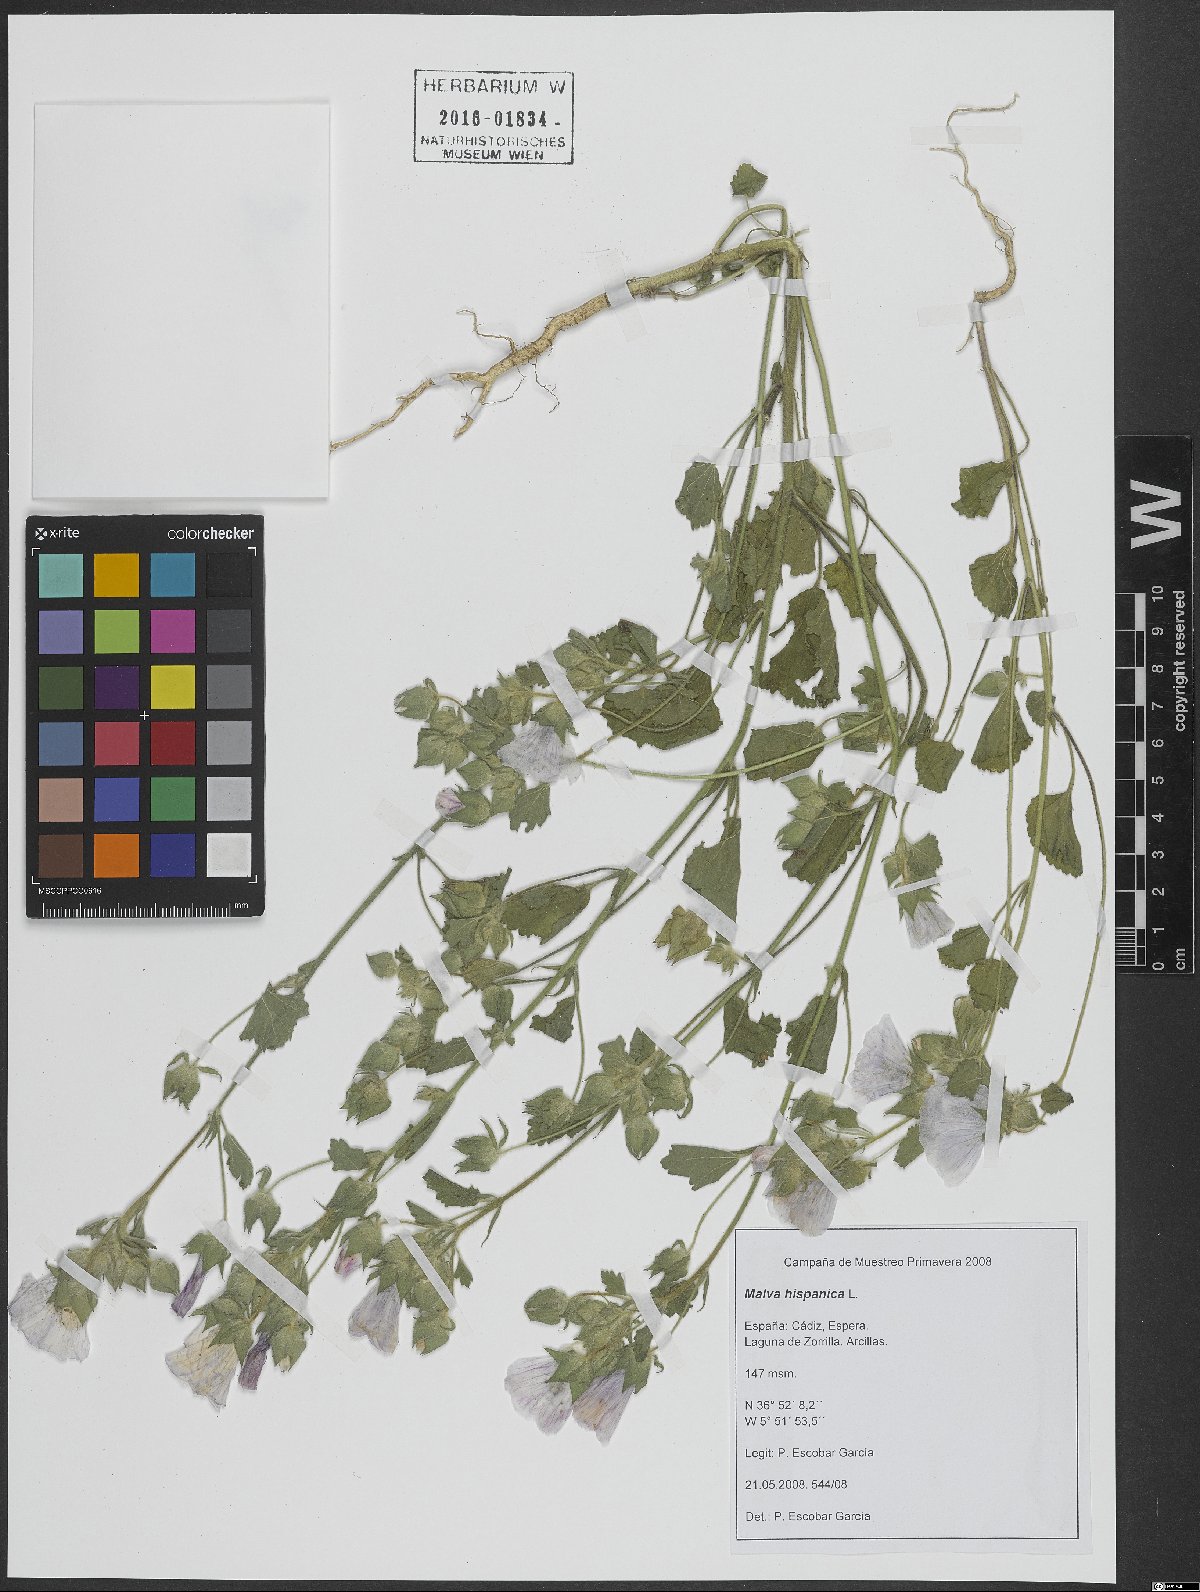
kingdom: Plantae
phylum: Tracheophyta
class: Magnoliopsida
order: Malvales
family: Malvaceae
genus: Malva
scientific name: Malva hispanica
